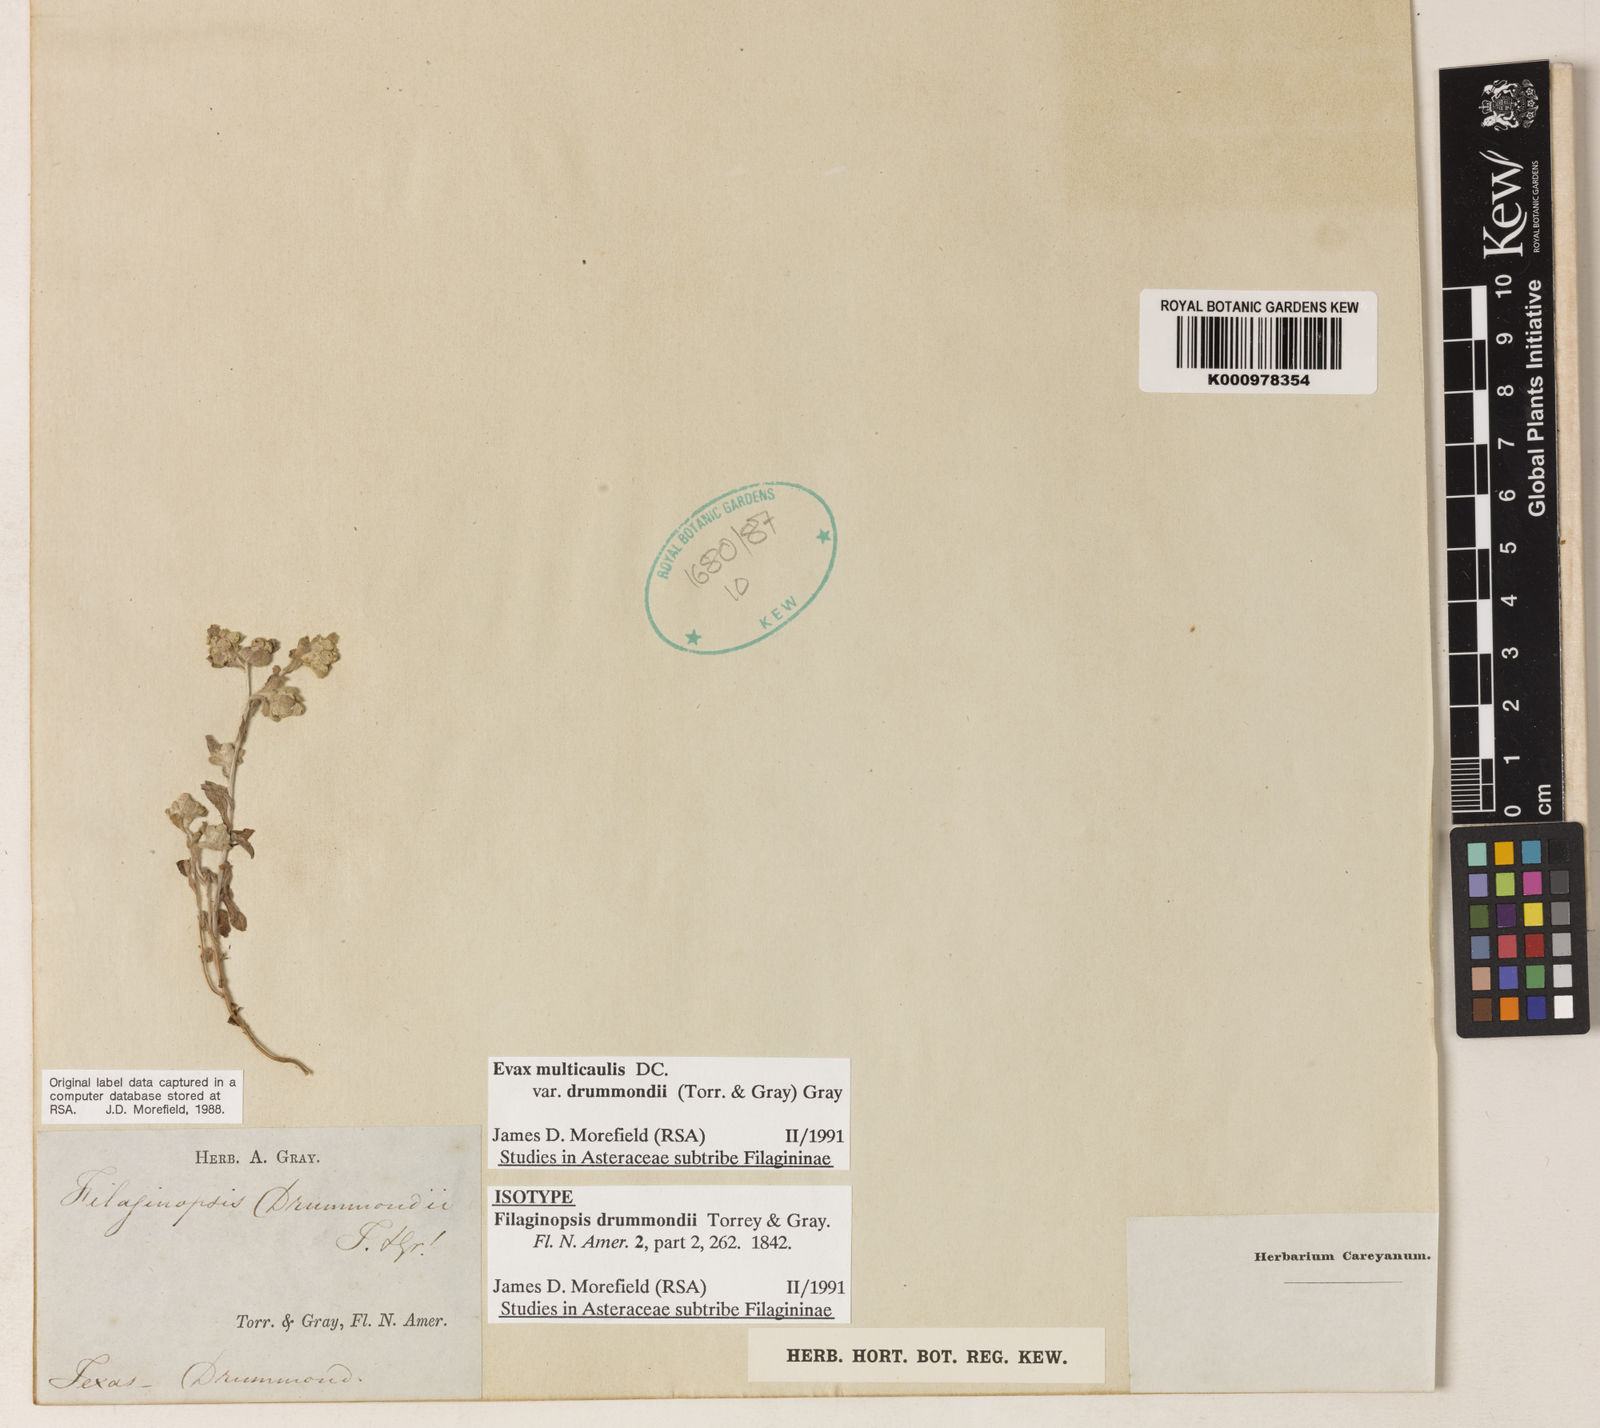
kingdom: Plantae
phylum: Tracheophyta
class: Magnoliopsida
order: Asterales
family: Asteraceae
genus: Diaperia
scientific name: Diaperia verna
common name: Many-stem rabbit-tobacco
